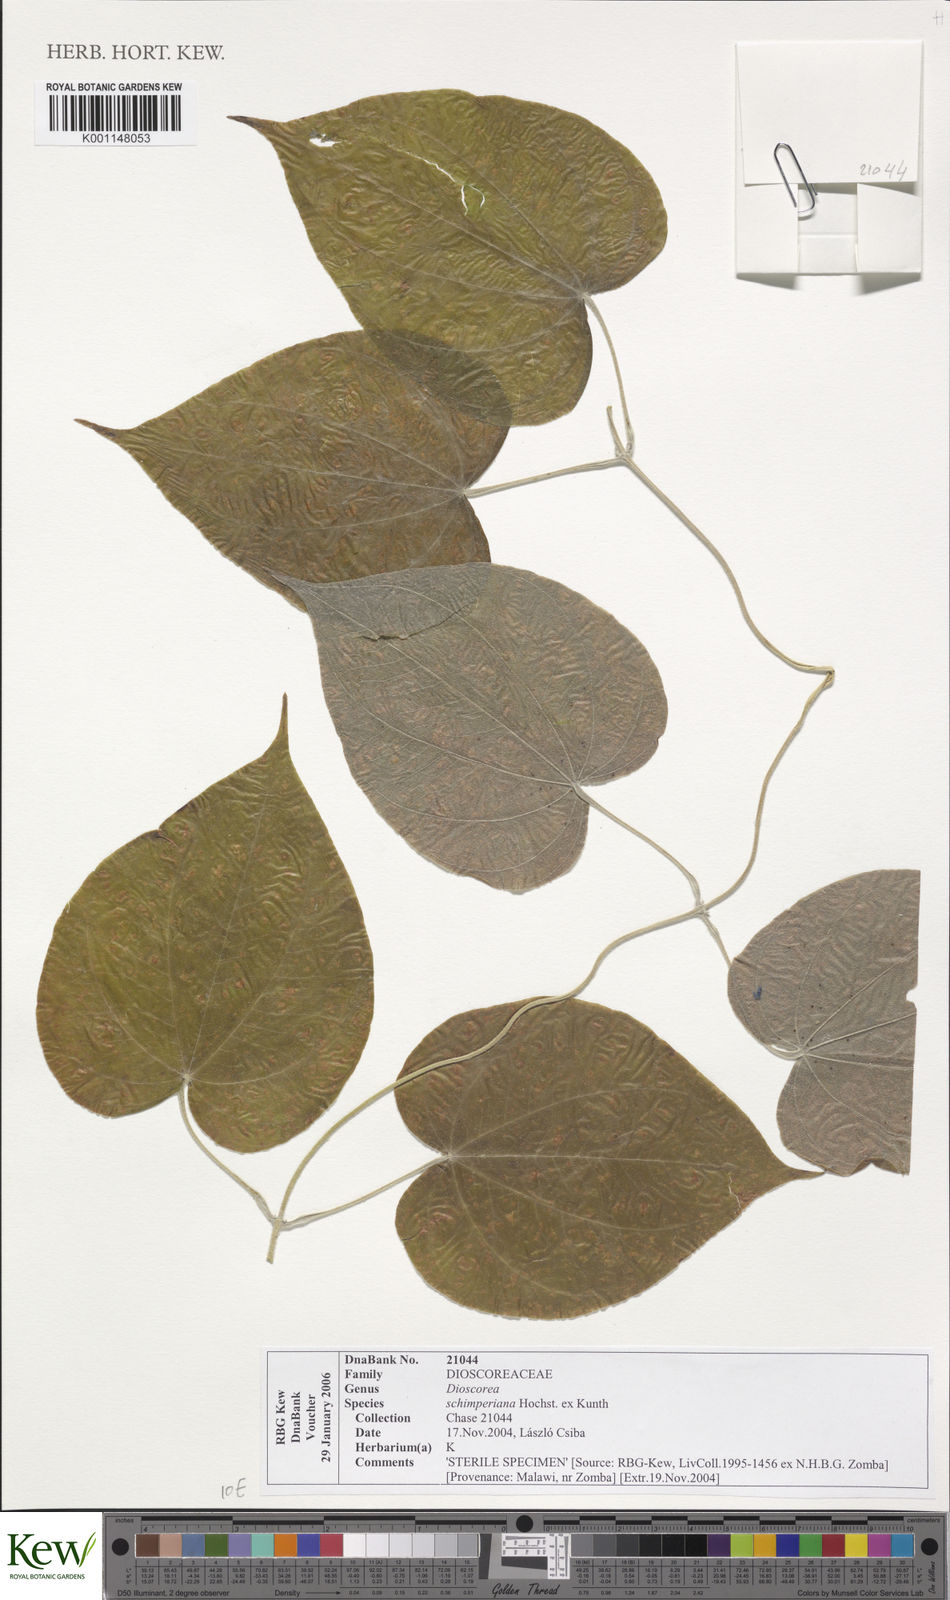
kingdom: Plantae
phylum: Tracheophyta
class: Liliopsida
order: Dioscoreales
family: Dioscoreaceae
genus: Dioscorea
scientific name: Dioscorea schimperiana
